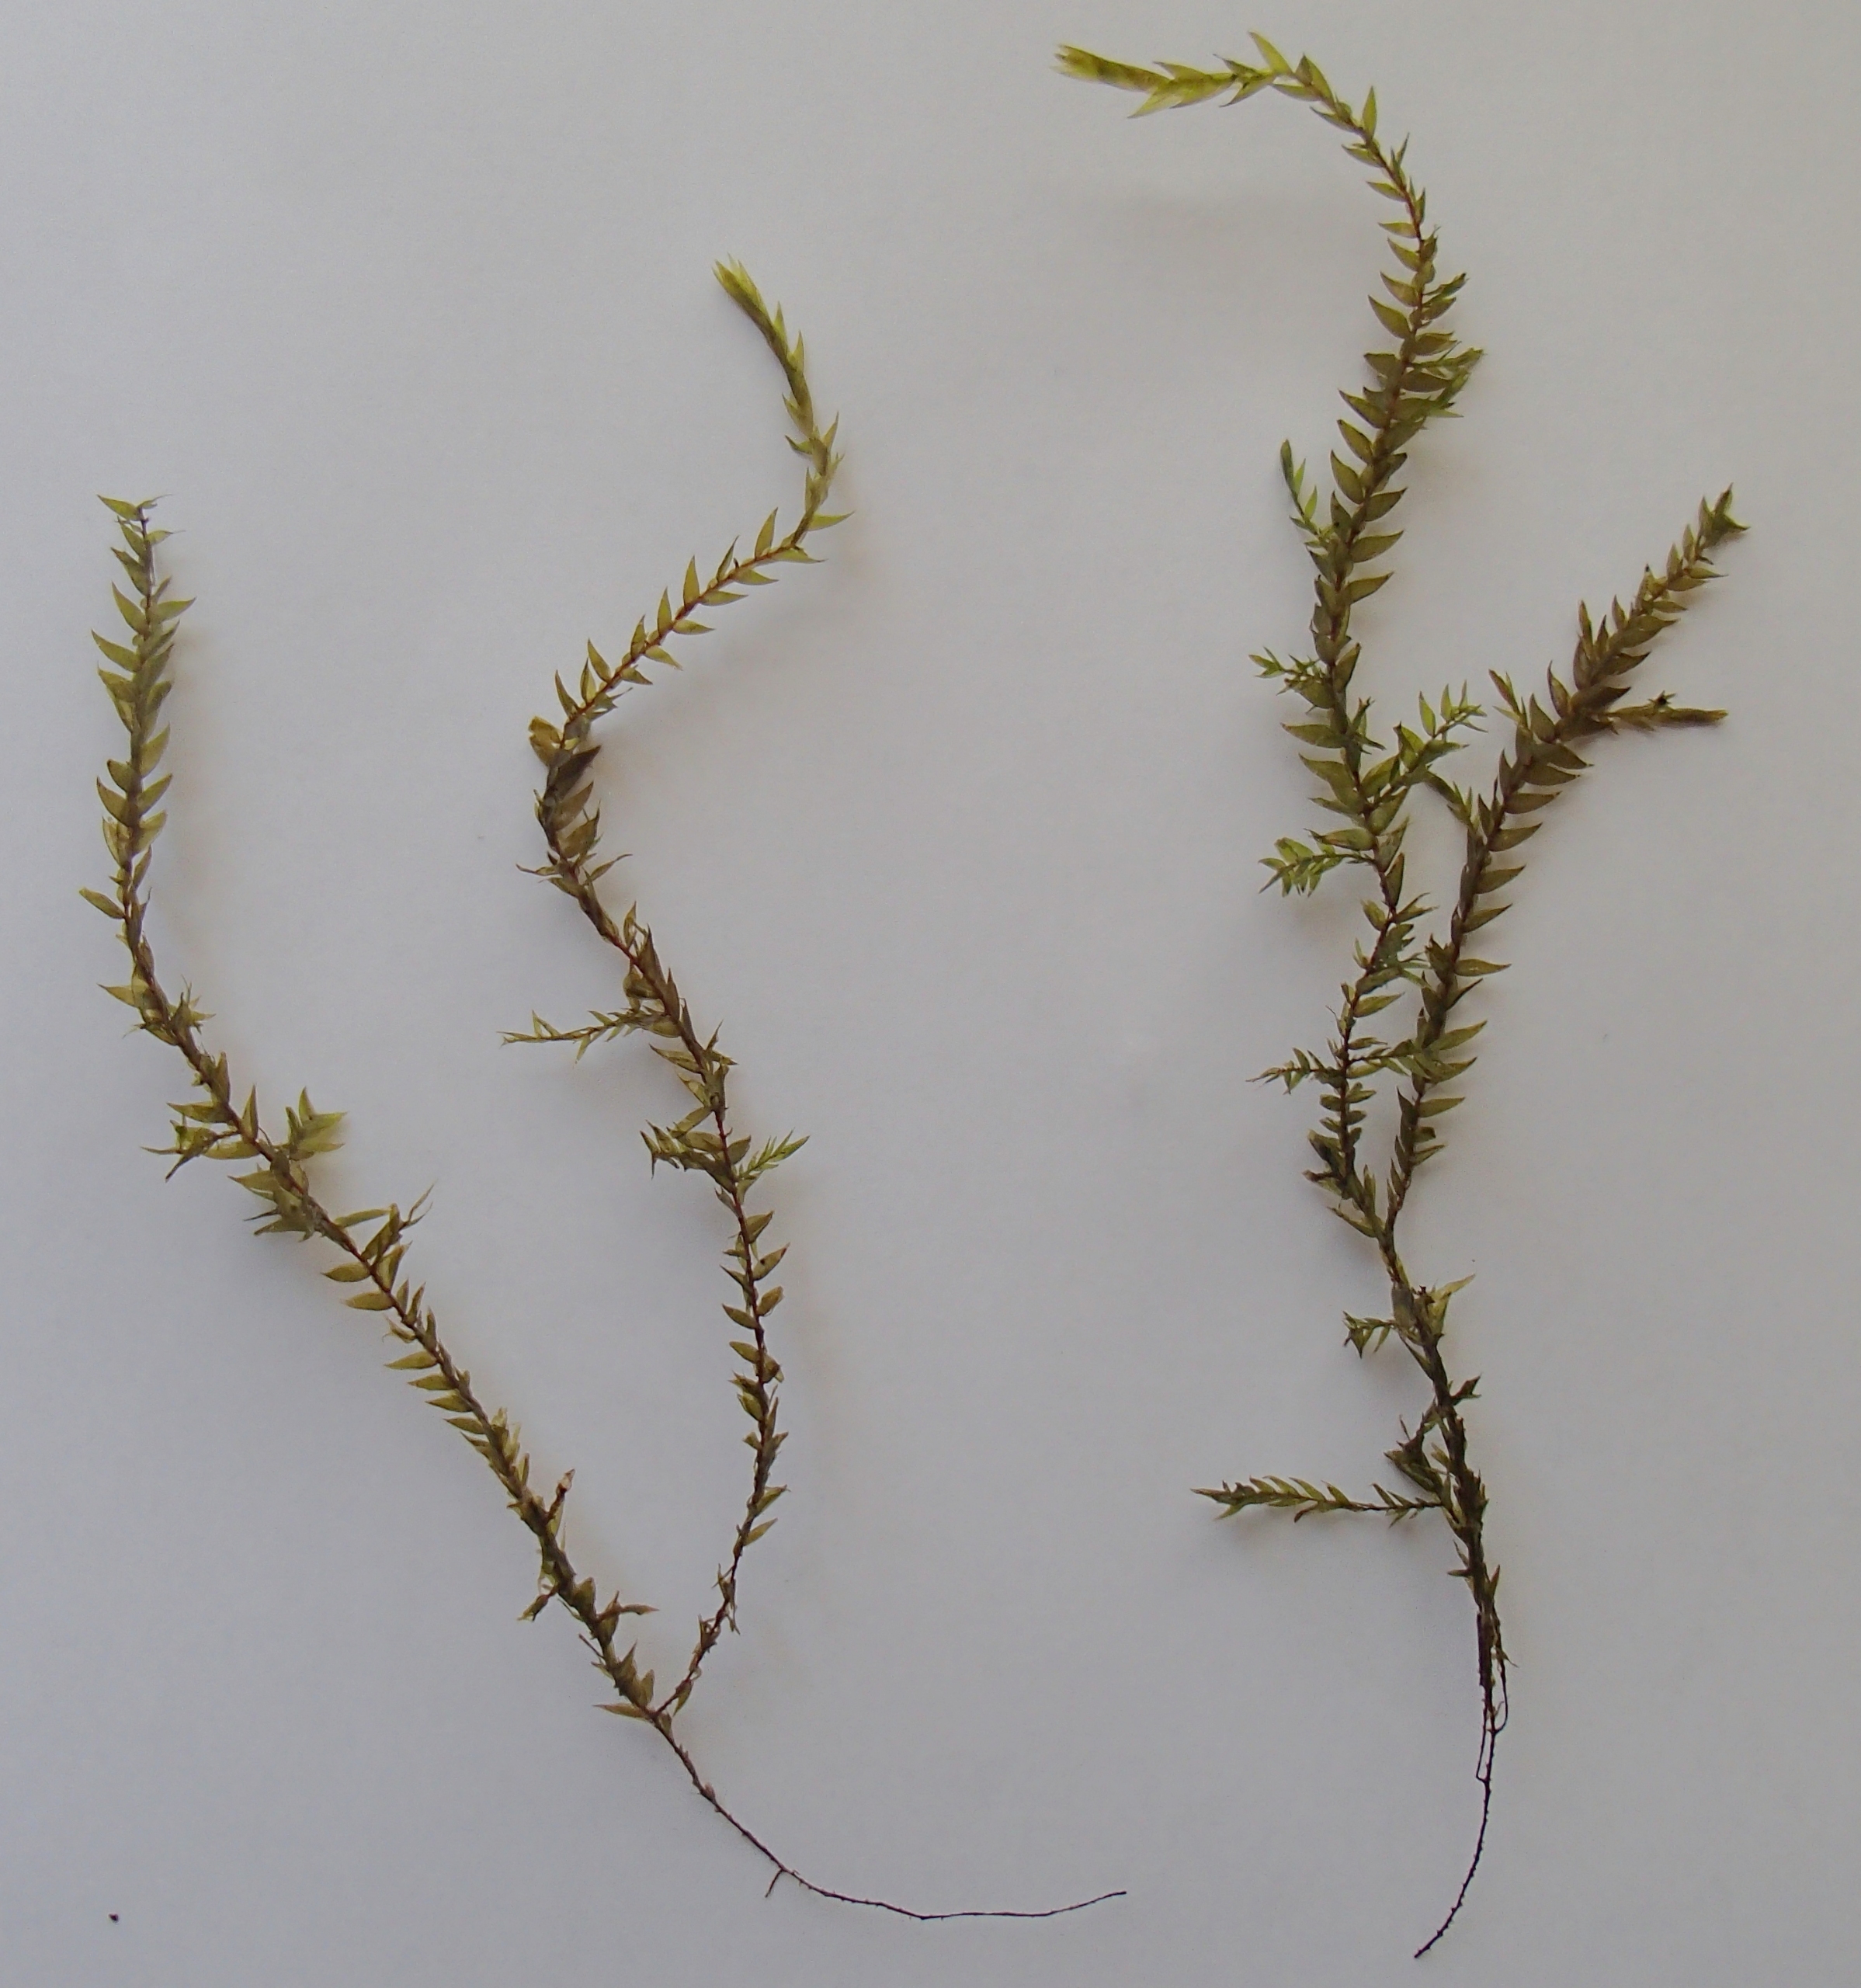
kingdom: Plantae
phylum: Bryophyta
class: Bryopsida
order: Hypnales
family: Fontinalaceae
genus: Fontinalis
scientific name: Fontinalis antipyretica
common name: Stor kildemos
